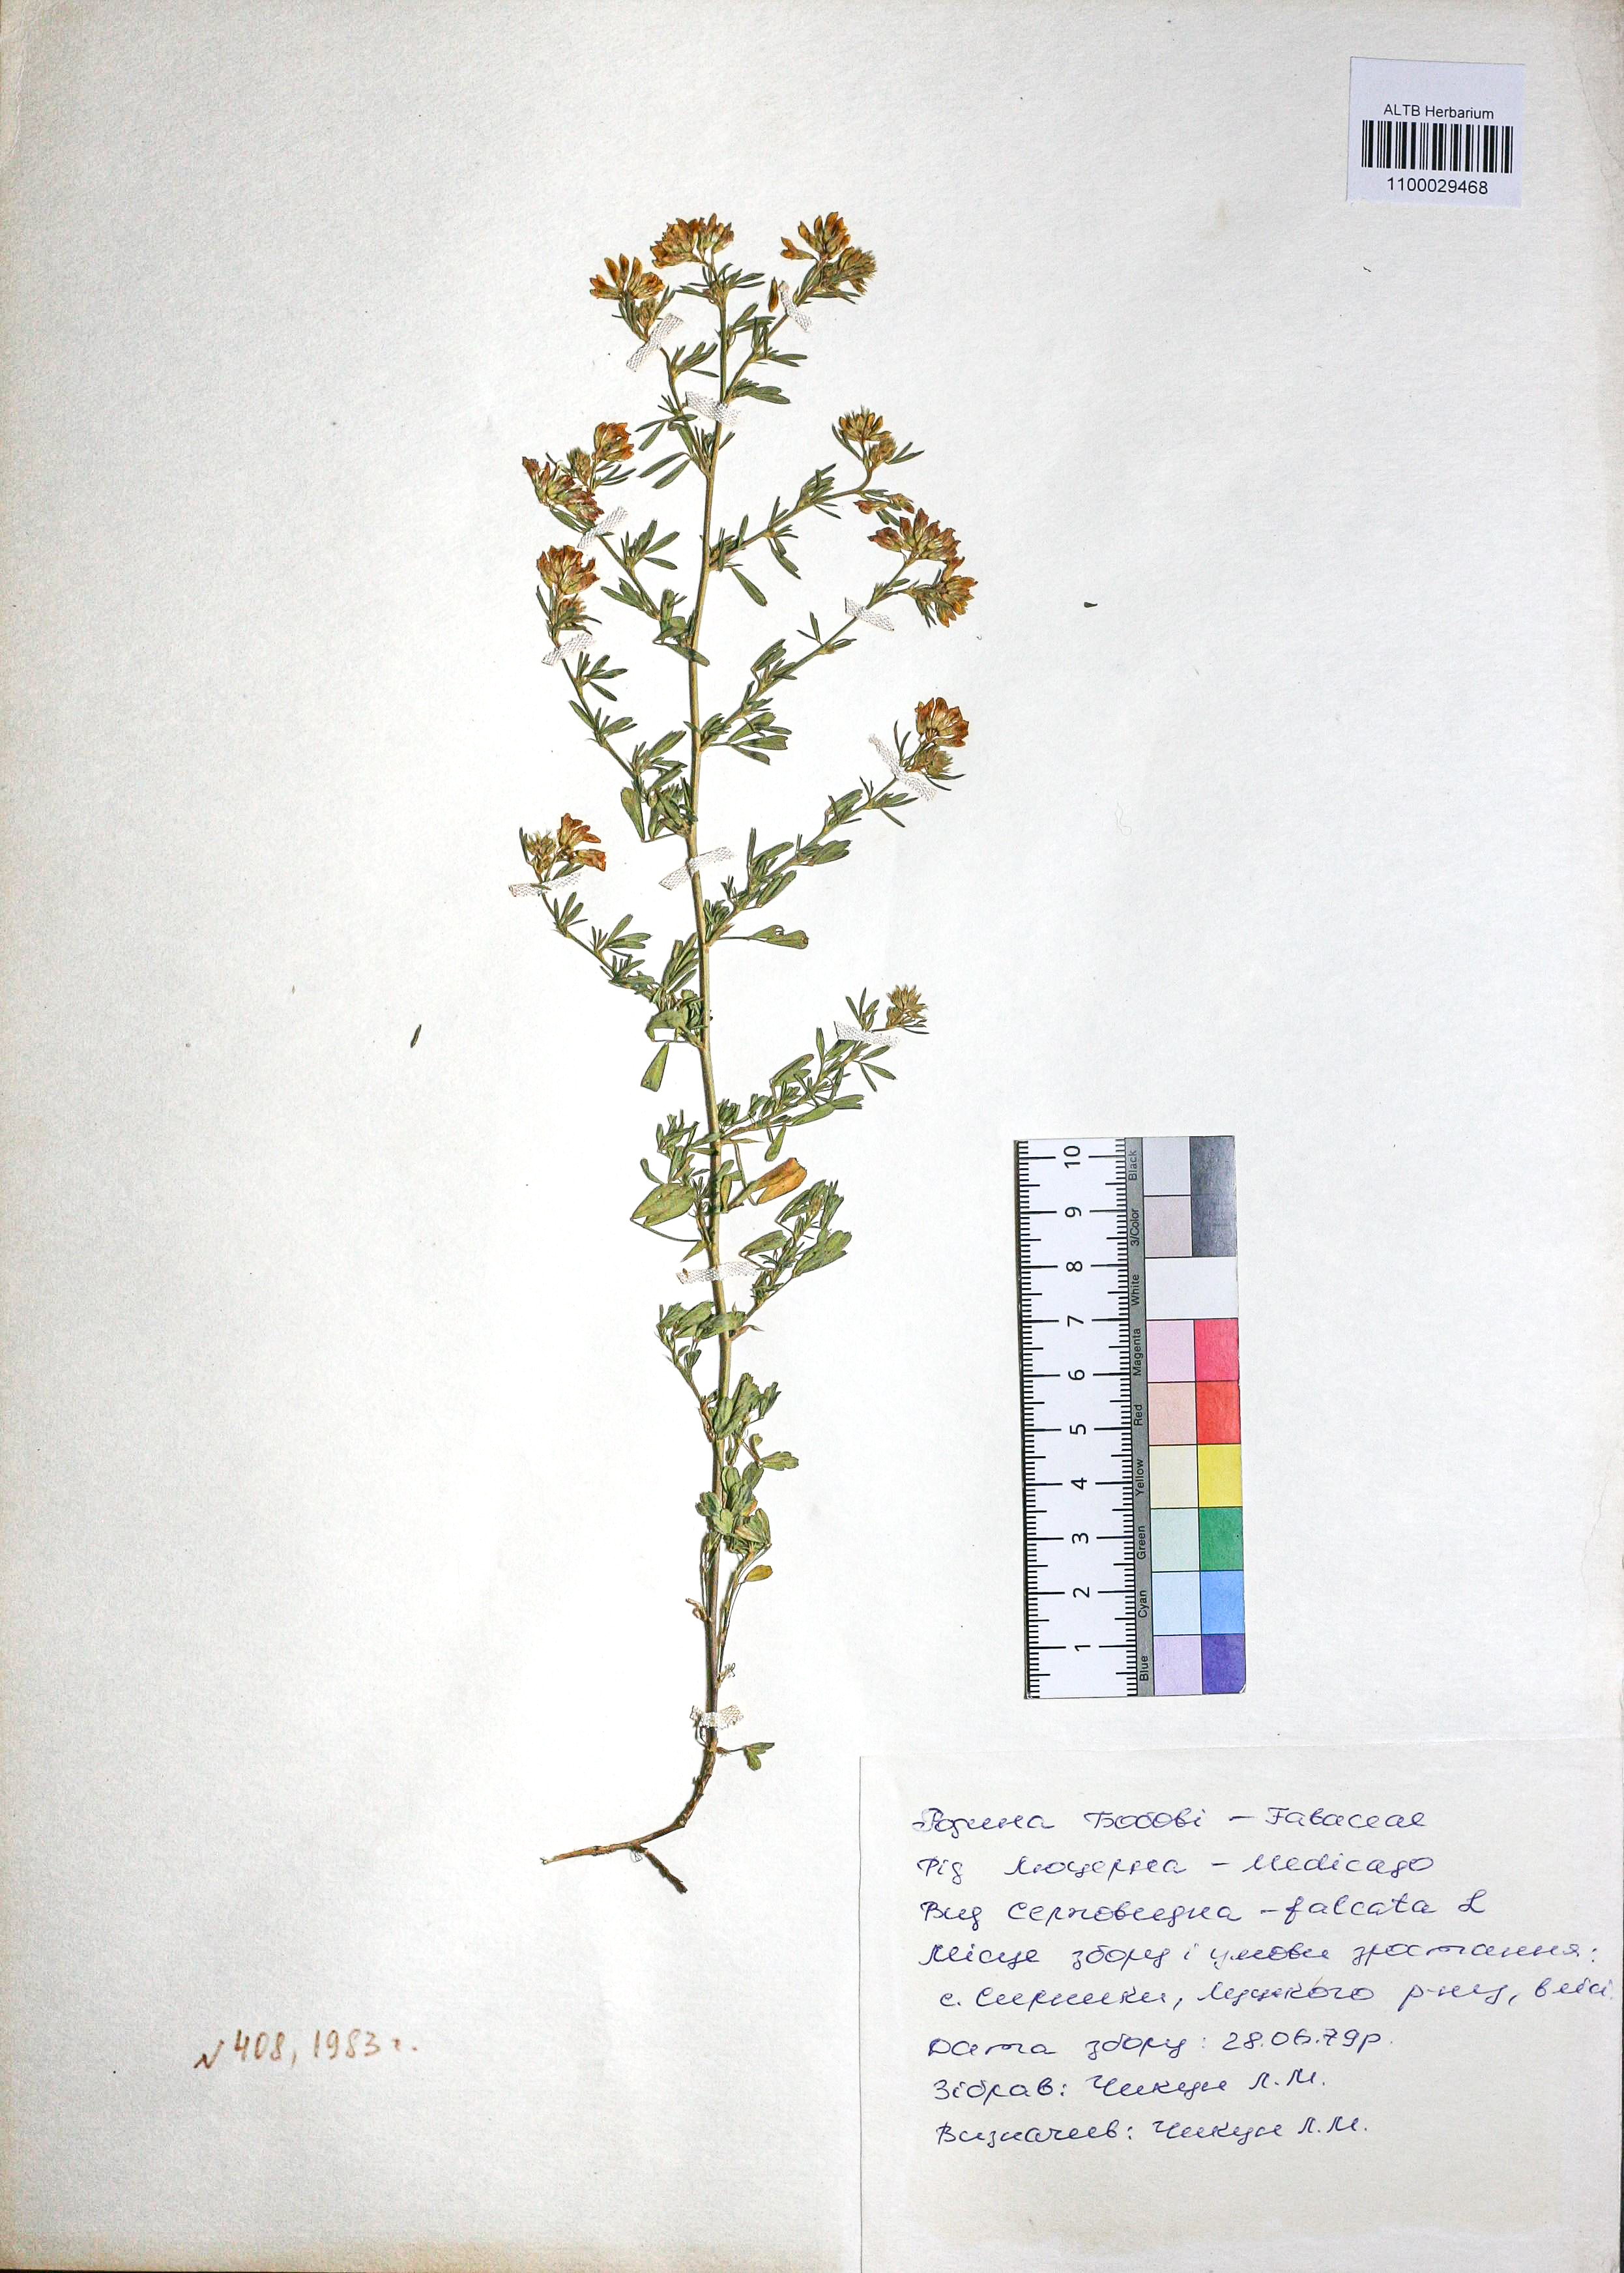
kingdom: Plantae
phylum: Tracheophyta
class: Magnoliopsida
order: Fabales
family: Fabaceae
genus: Medicago
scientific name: Medicago falcata
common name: Sickle medick
